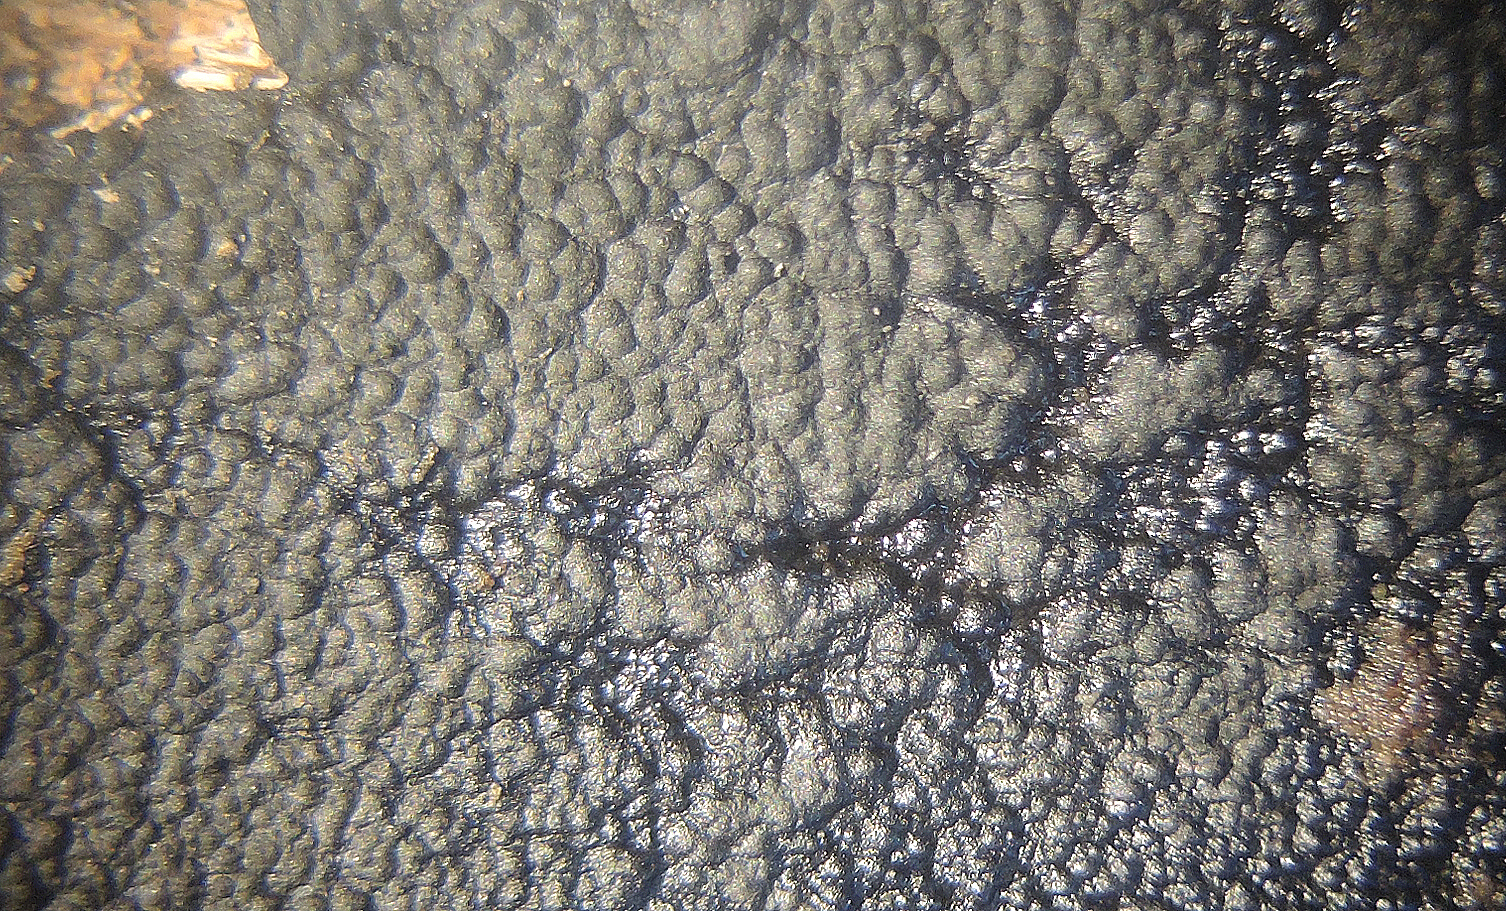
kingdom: Fungi
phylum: Ascomycota
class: Sordariomycetes
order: Xylariales
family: Xylariaceae
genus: Nemania
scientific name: Nemania carbonacea
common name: kulsort kuldyne
